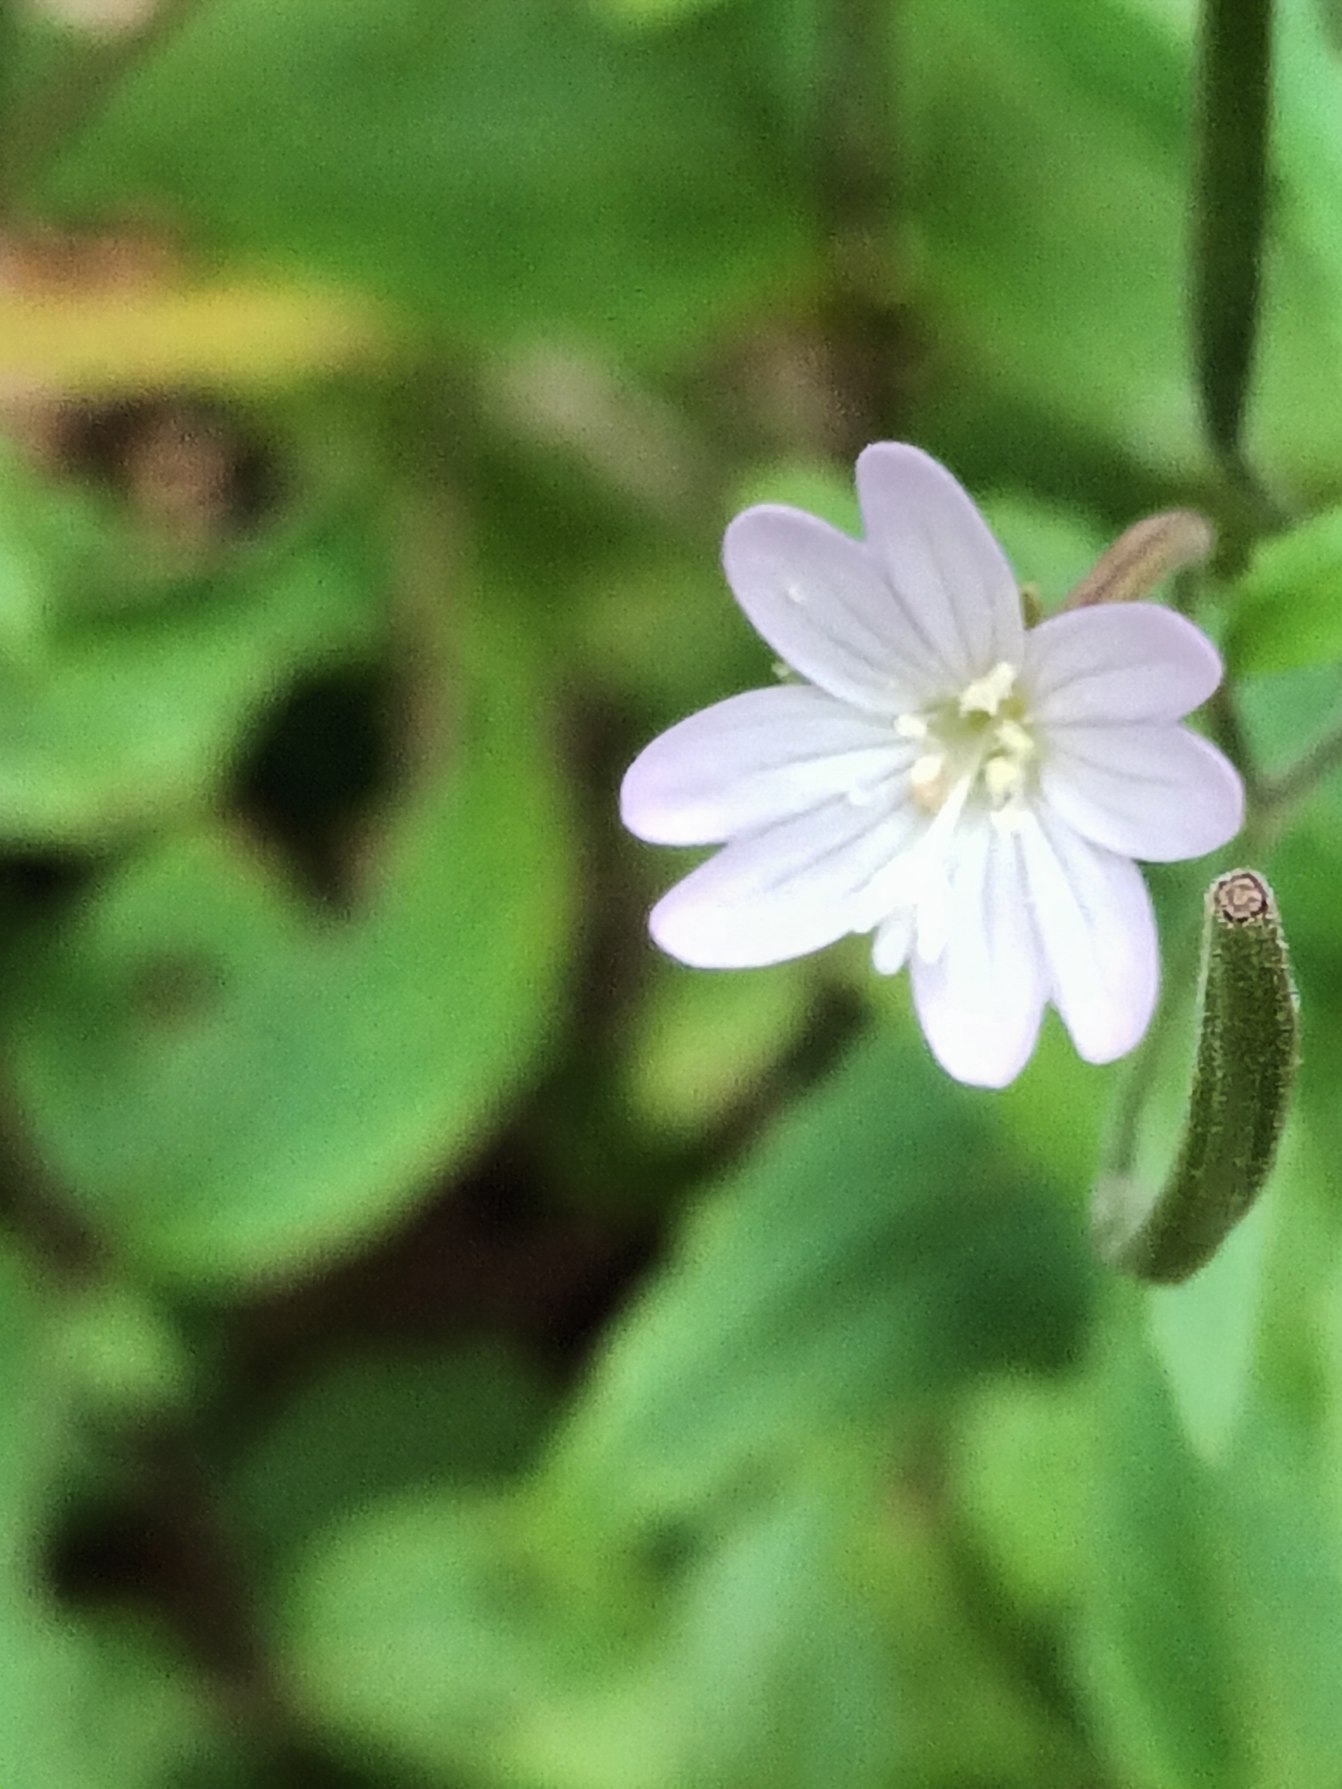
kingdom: Plantae
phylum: Tracheophyta
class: Magnoliopsida
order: Myrtales
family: Onagraceae
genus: Epilobium
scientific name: Epilobium montanum
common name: Glat dueurt
